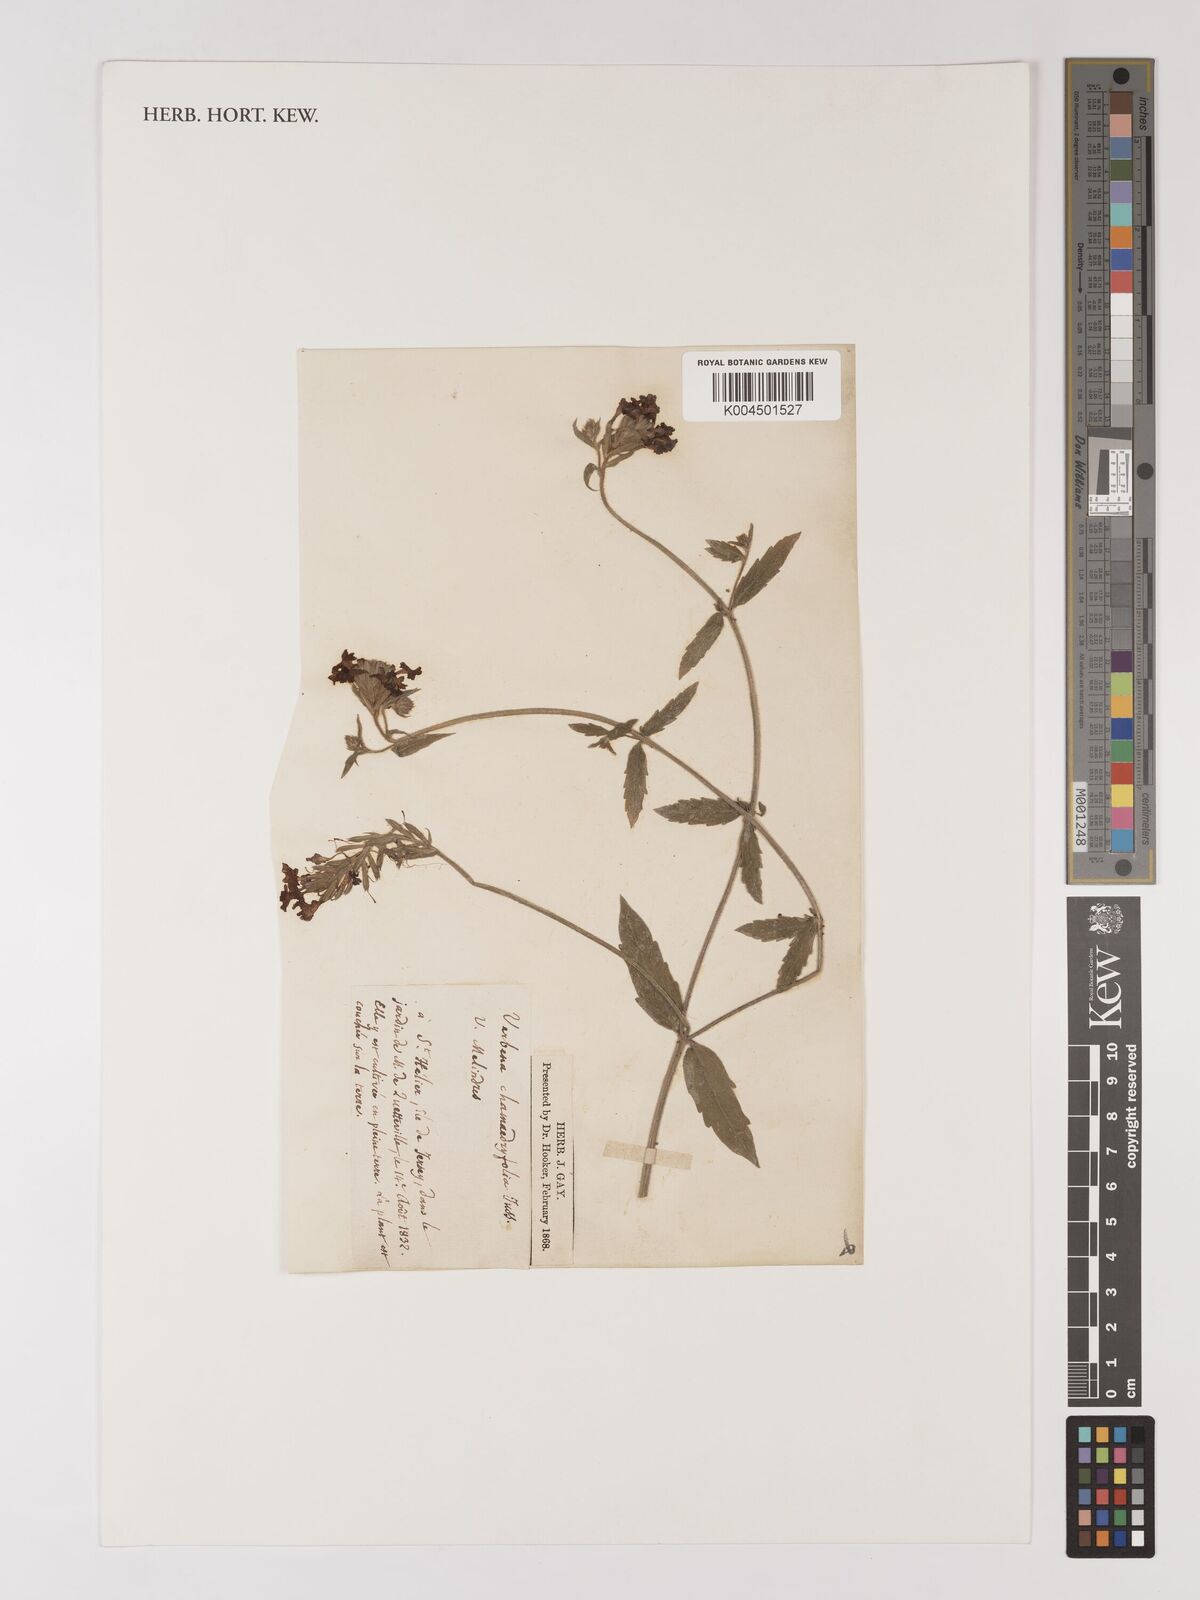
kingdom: Plantae
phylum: Tracheophyta
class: Magnoliopsida
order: Lamiales
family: Verbenaceae
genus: Verbena
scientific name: Verbena peruviana
